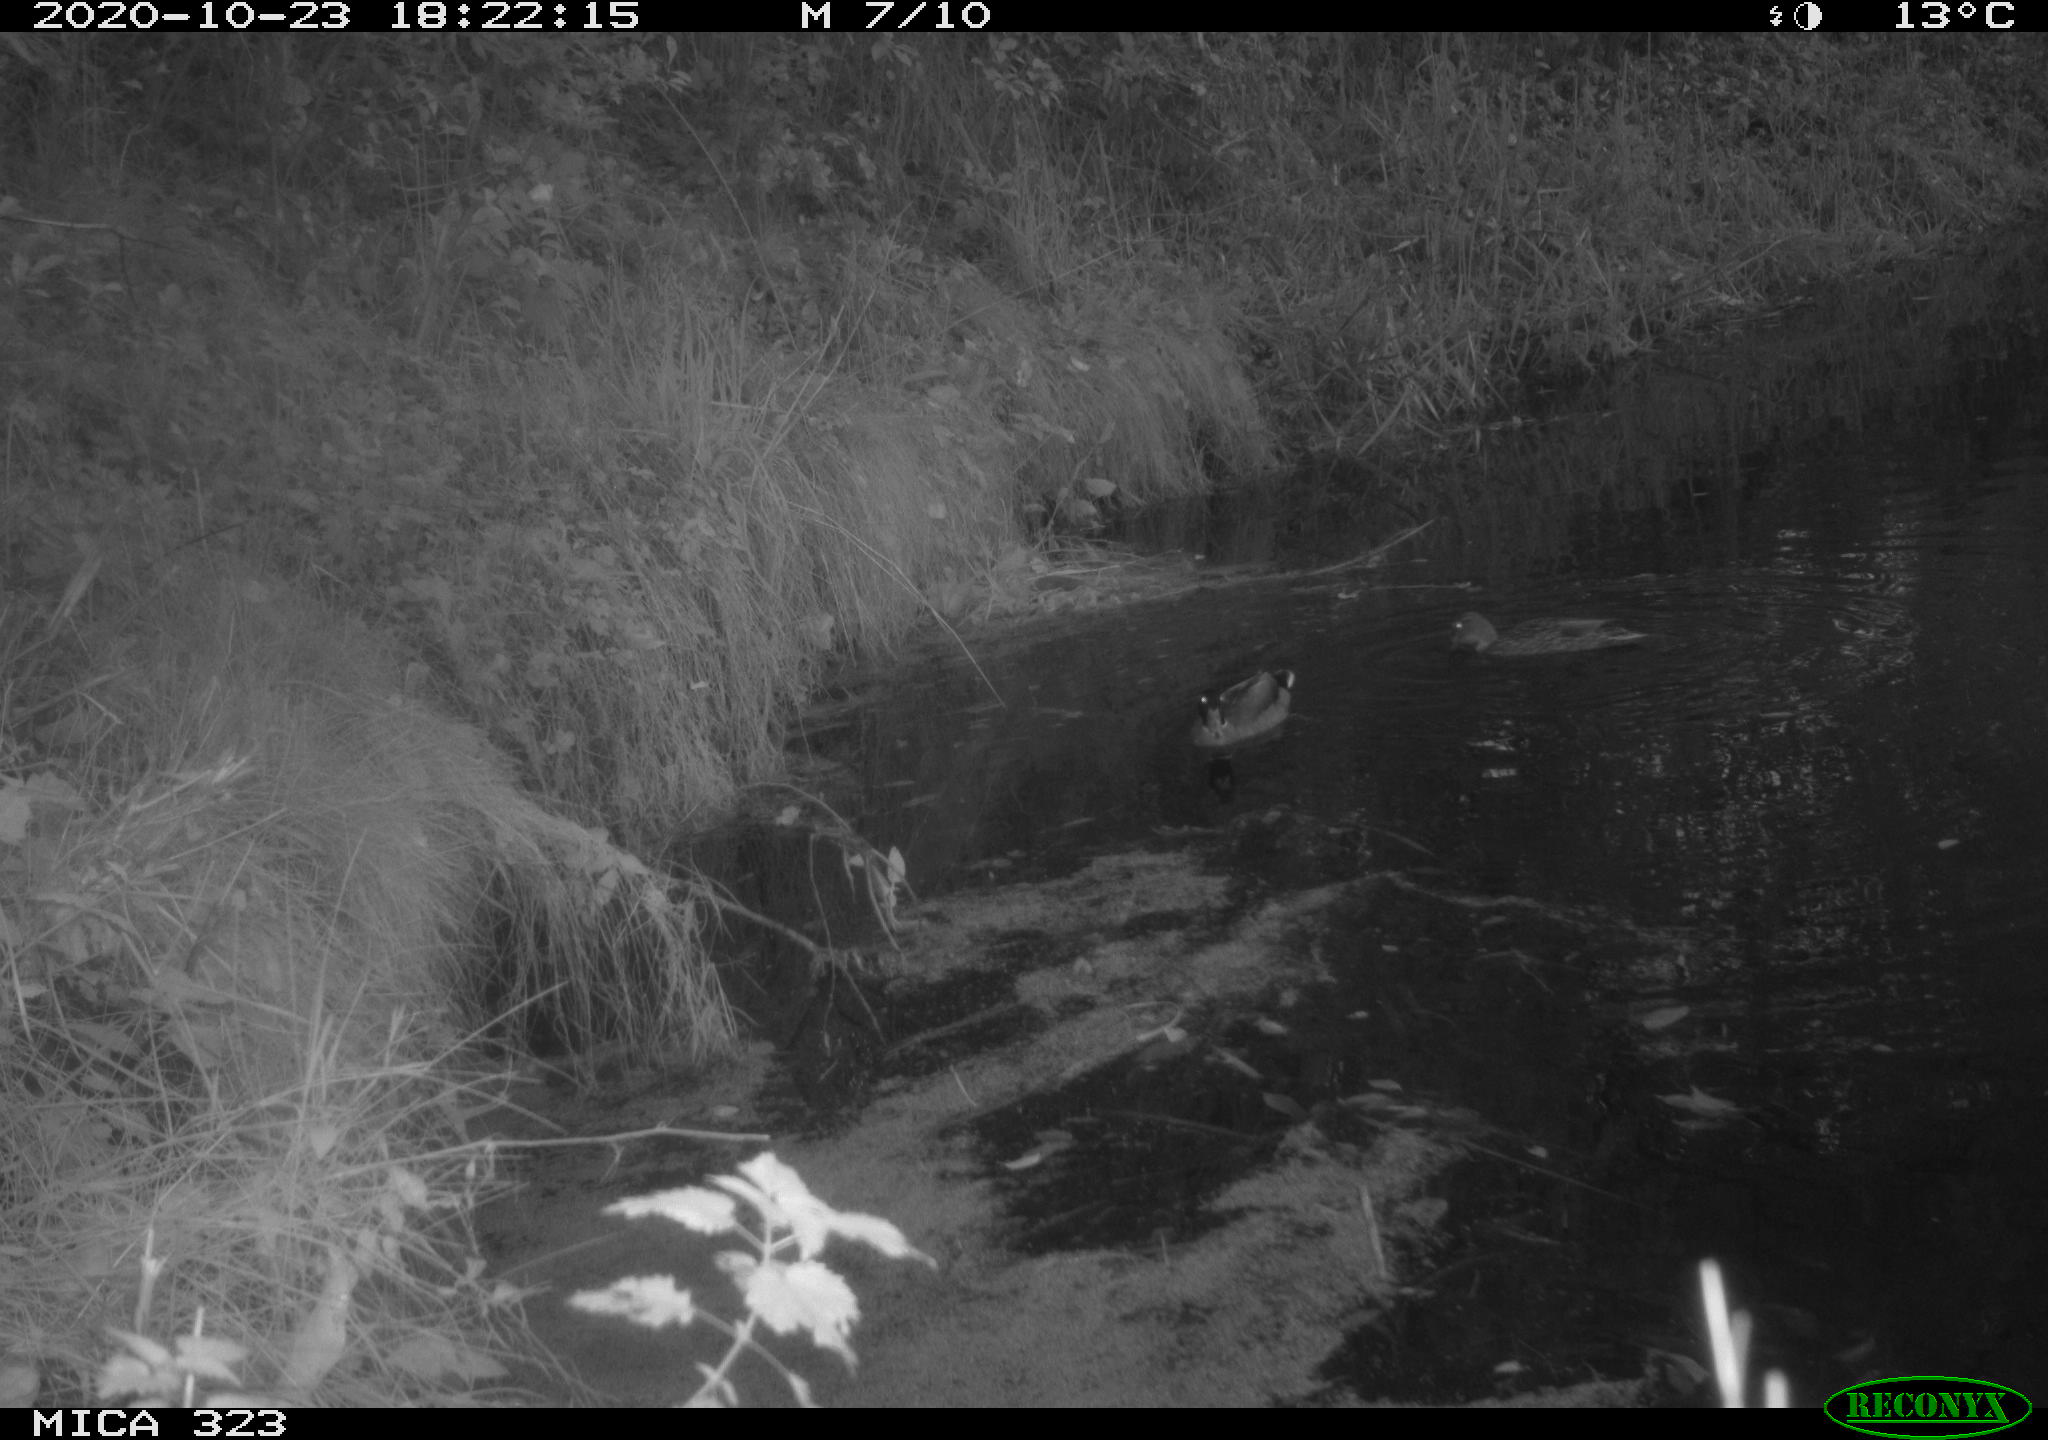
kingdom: Animalia
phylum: Chordata
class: Aves
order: Anseriformes
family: Anatidae
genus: Anas
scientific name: Anas platyrhynchos
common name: Mallard
